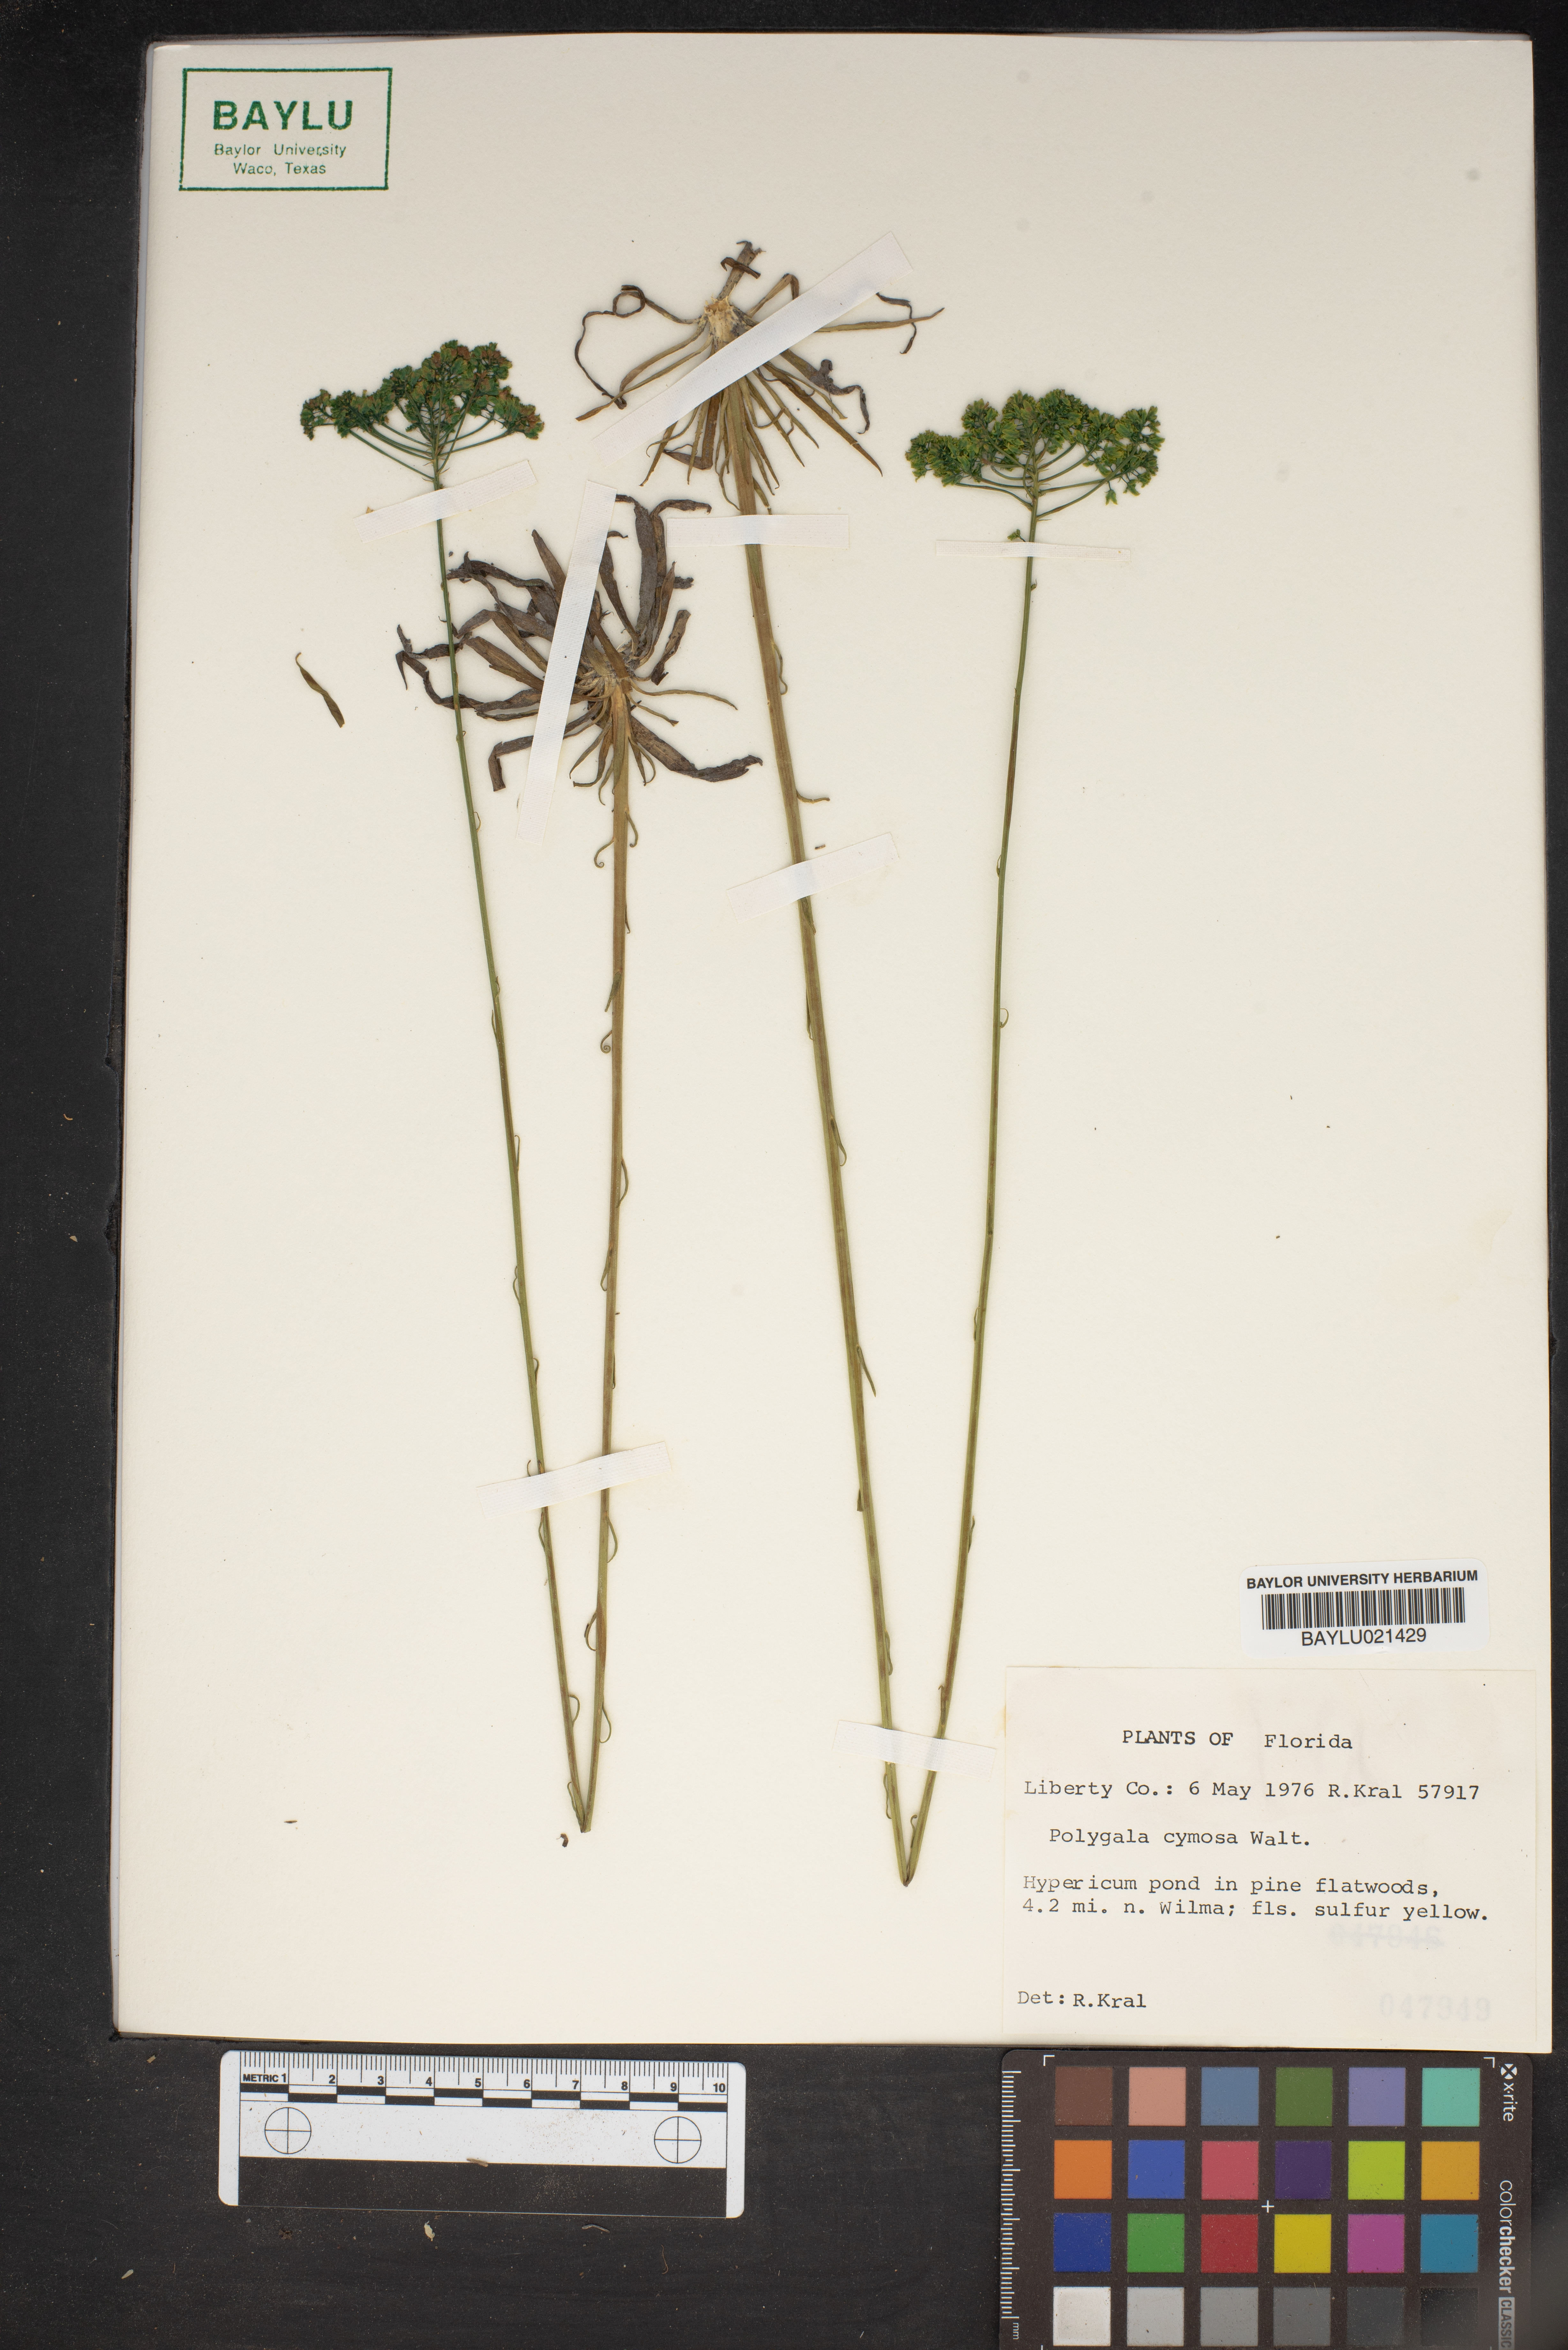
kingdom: Plantae
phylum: Tracheophyta
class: Magnoliopsida
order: Fabales
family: Polygalaceae
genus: Polygala
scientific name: Polygala cymosa
